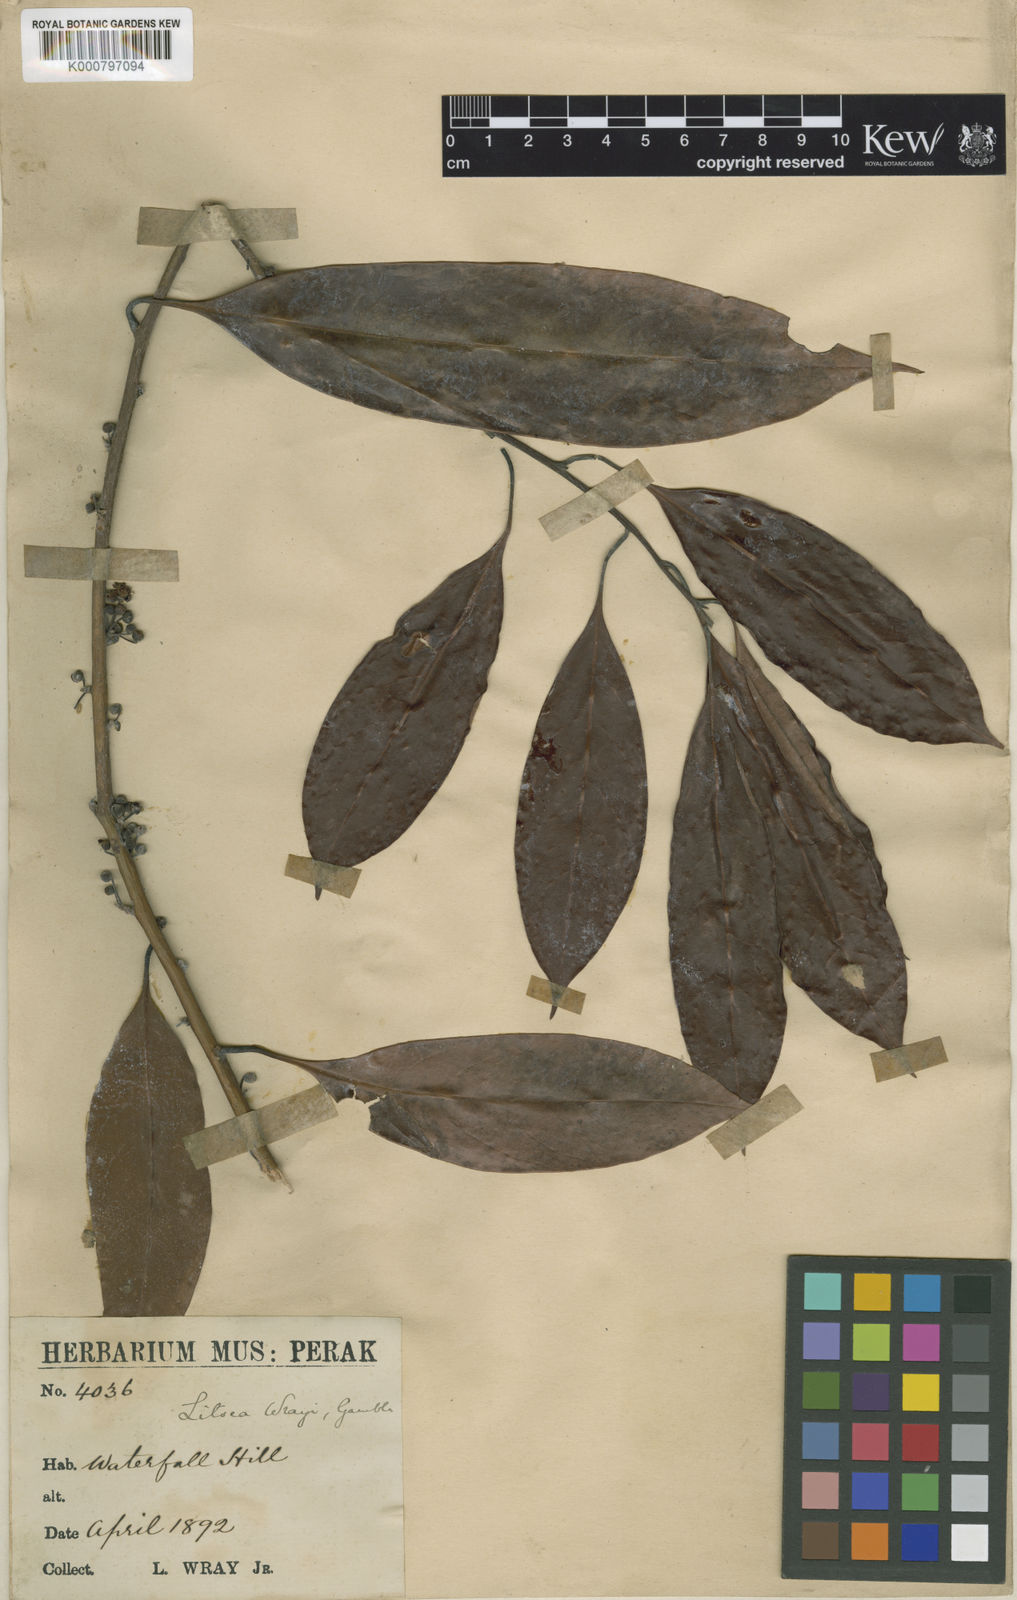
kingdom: Plantae
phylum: Tracheophyta
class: Magnoliopsida
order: Laurales
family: Lauraceae
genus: Litsea
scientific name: Litsea accedens
